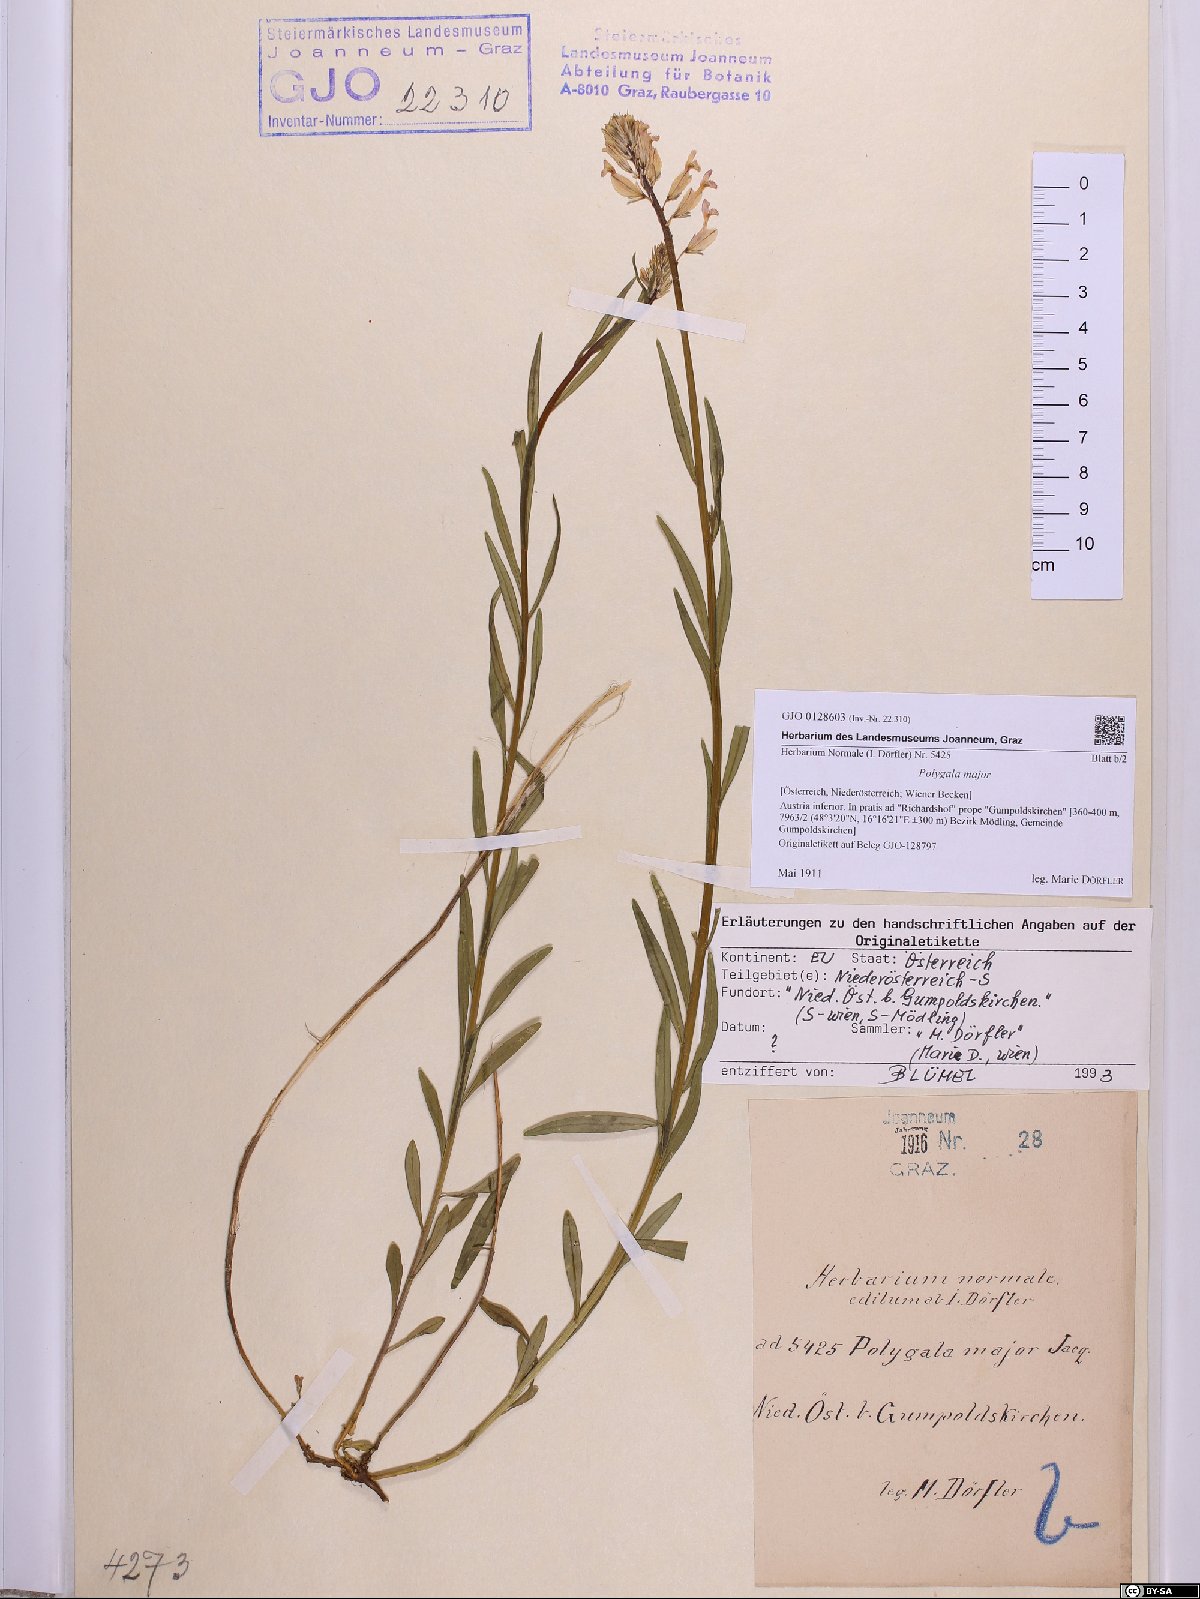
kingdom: Plantae
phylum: Tracheophyta
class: Magnoliopsida
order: Fabales
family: Polygalaceae
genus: Polygala
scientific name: Polygala major
